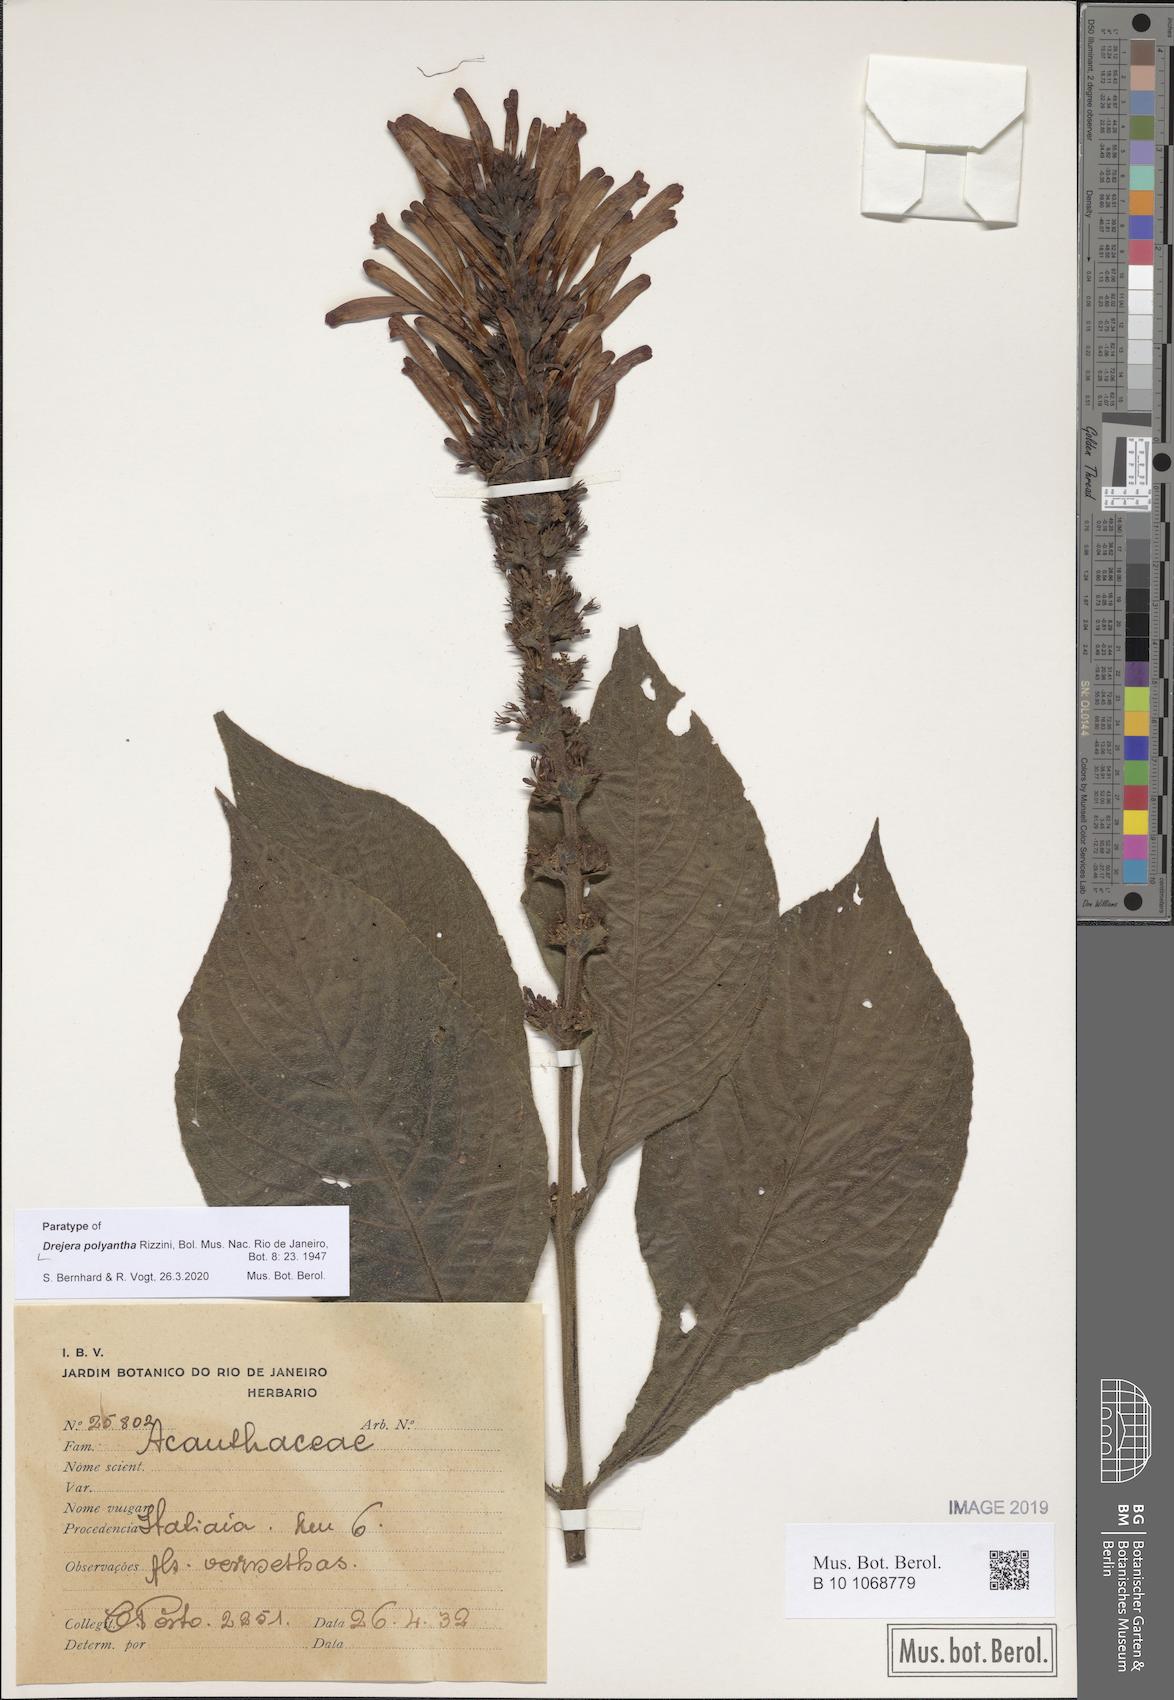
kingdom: Plantae
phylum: Tracheophyta
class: Magnoliopsida
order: Lamiales
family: Acanthaceae
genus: Thyrsacanthus
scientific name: Thyrsacanthus Drejera polyantha
